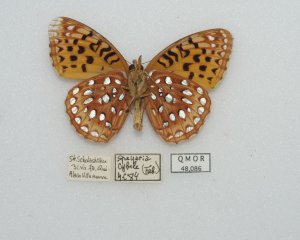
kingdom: Animalia
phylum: Arthropoda
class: Insecta
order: Lepidoptera
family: Nymphalidae
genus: Speyeria
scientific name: Speyeria cybele
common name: Great Spangled Fritillary
